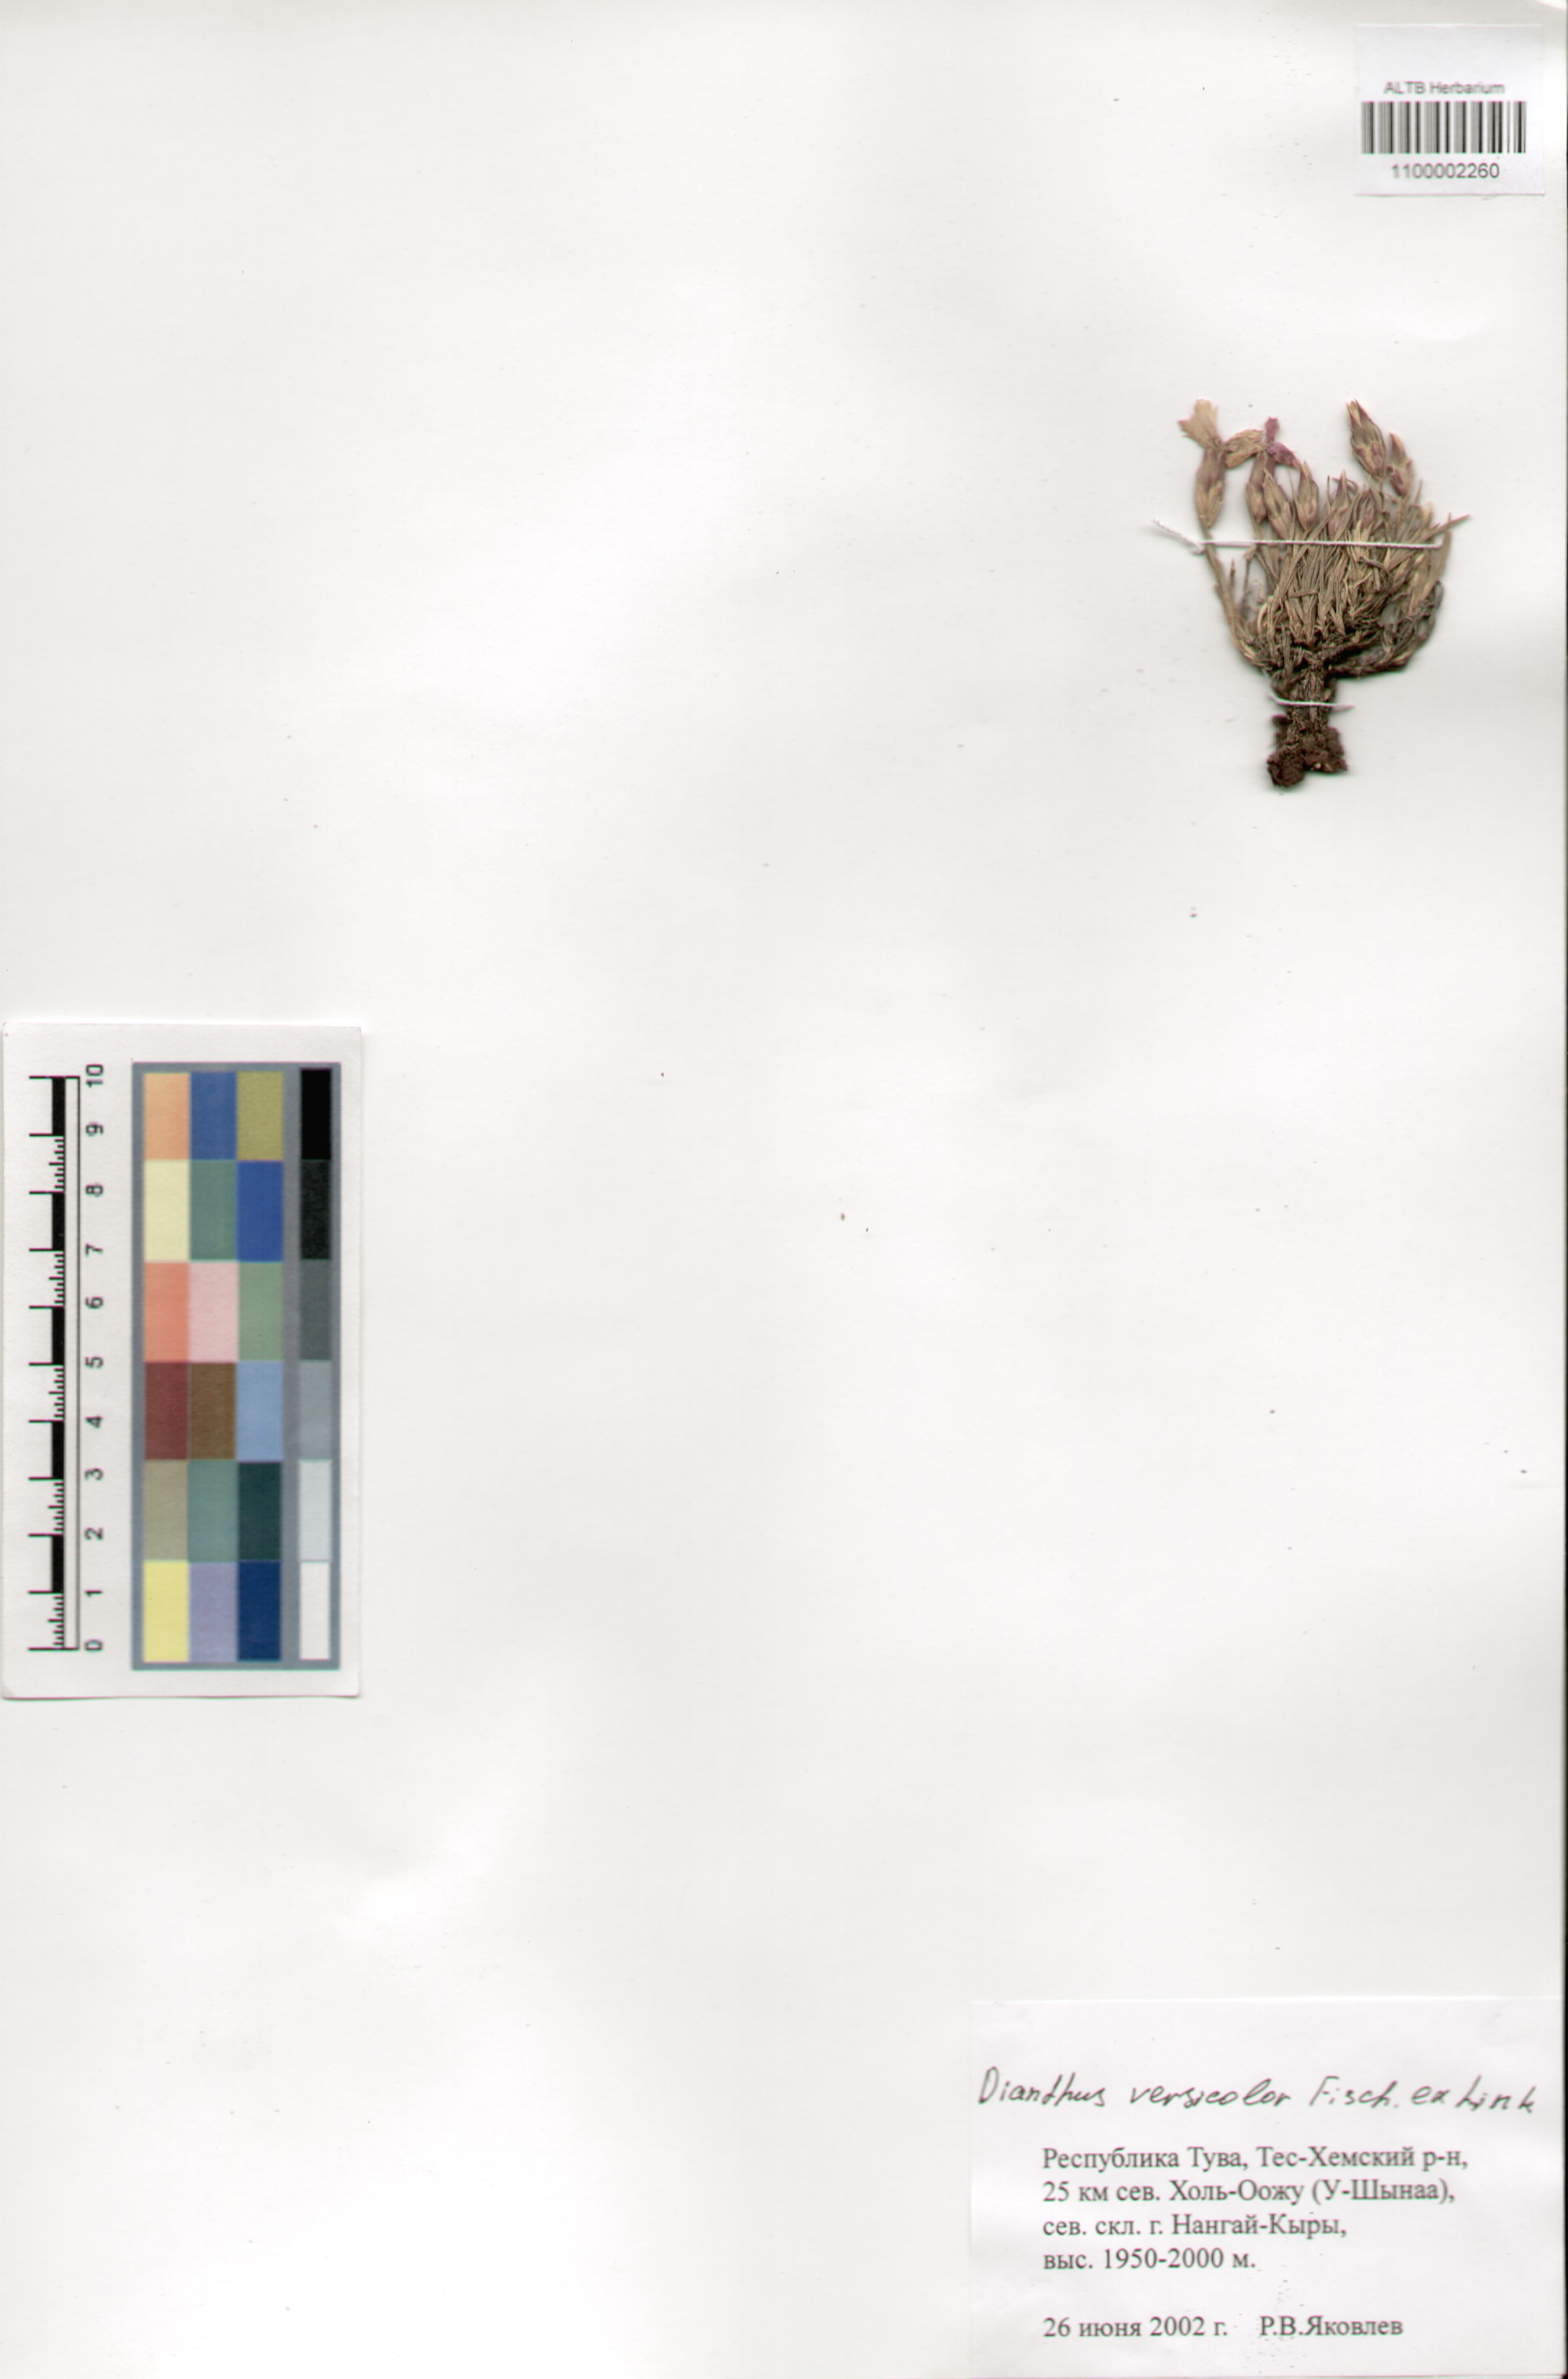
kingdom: Plantae
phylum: Tracheophyta
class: Magnoliopsida
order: Caryophyllales
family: Caryophyllaceae
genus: Dianthus
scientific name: Dianthus chinensis
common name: Rainbow pink
